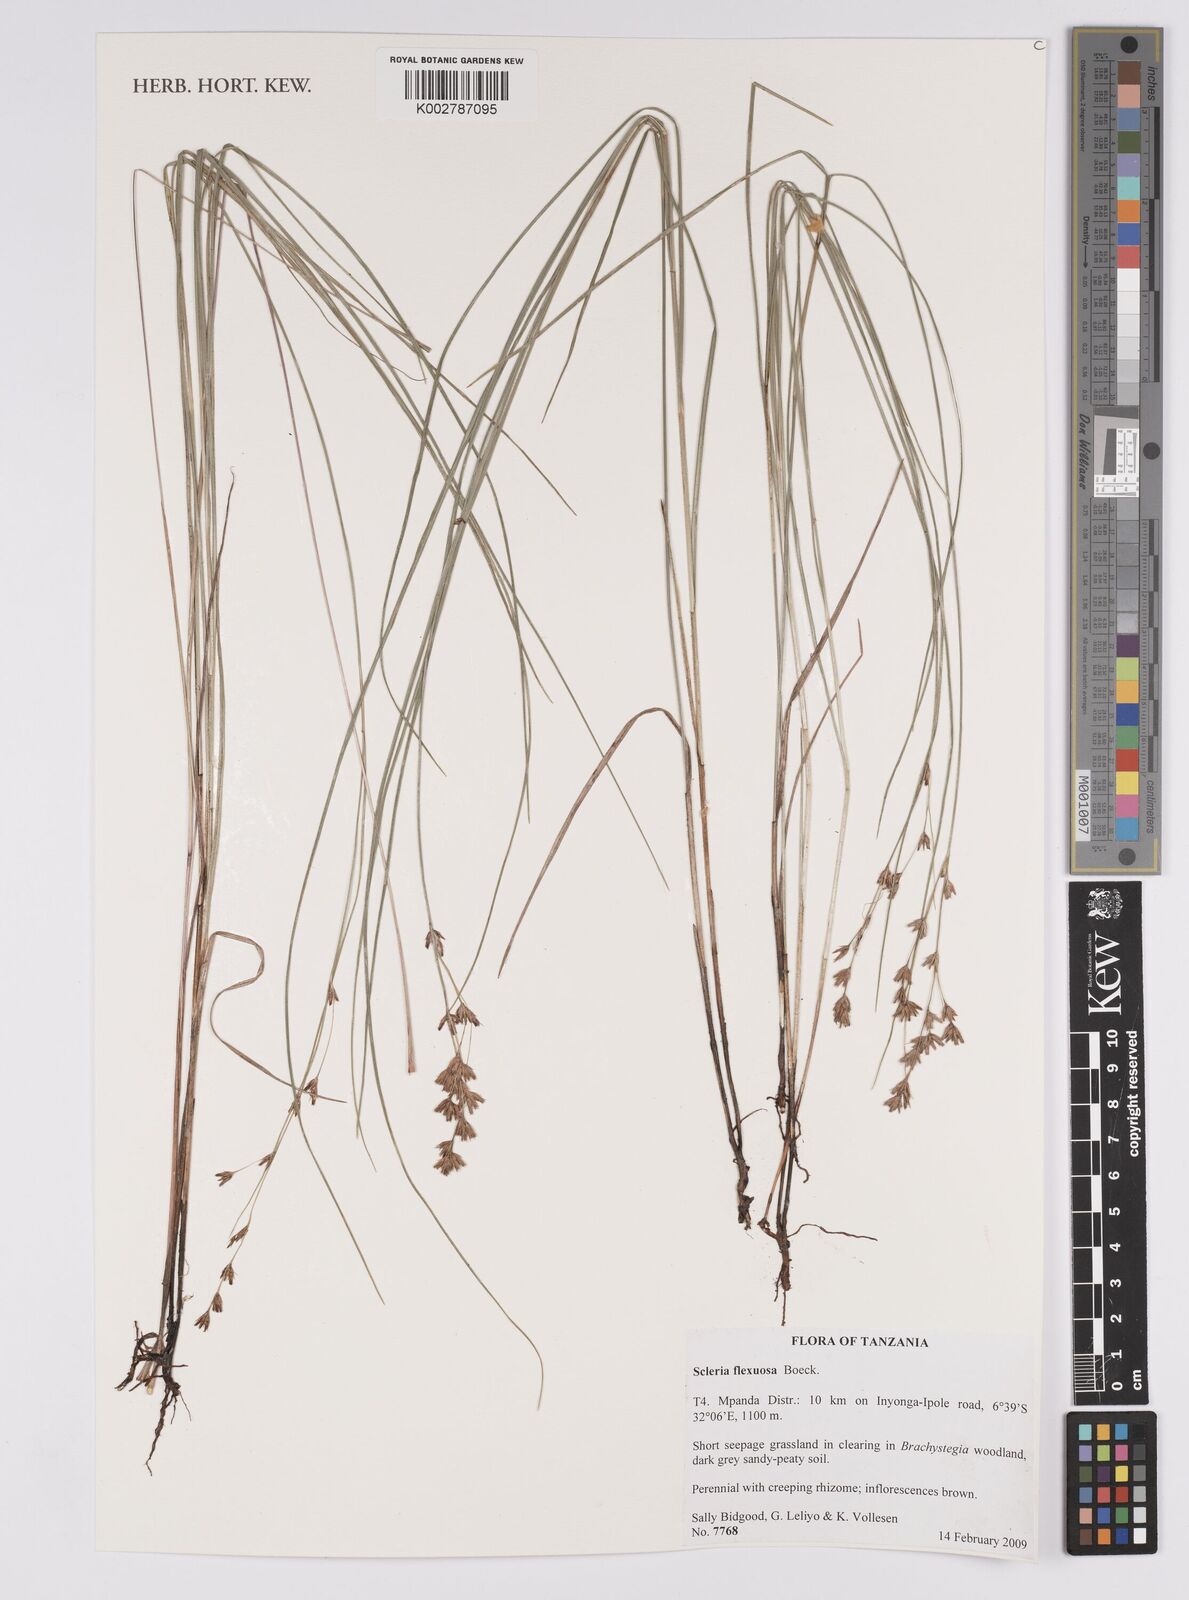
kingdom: Plantae
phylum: Tracheophyta
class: Liliopsida
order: Poales
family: Cyperaceae
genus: Scleria
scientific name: Scleria flexuosa
